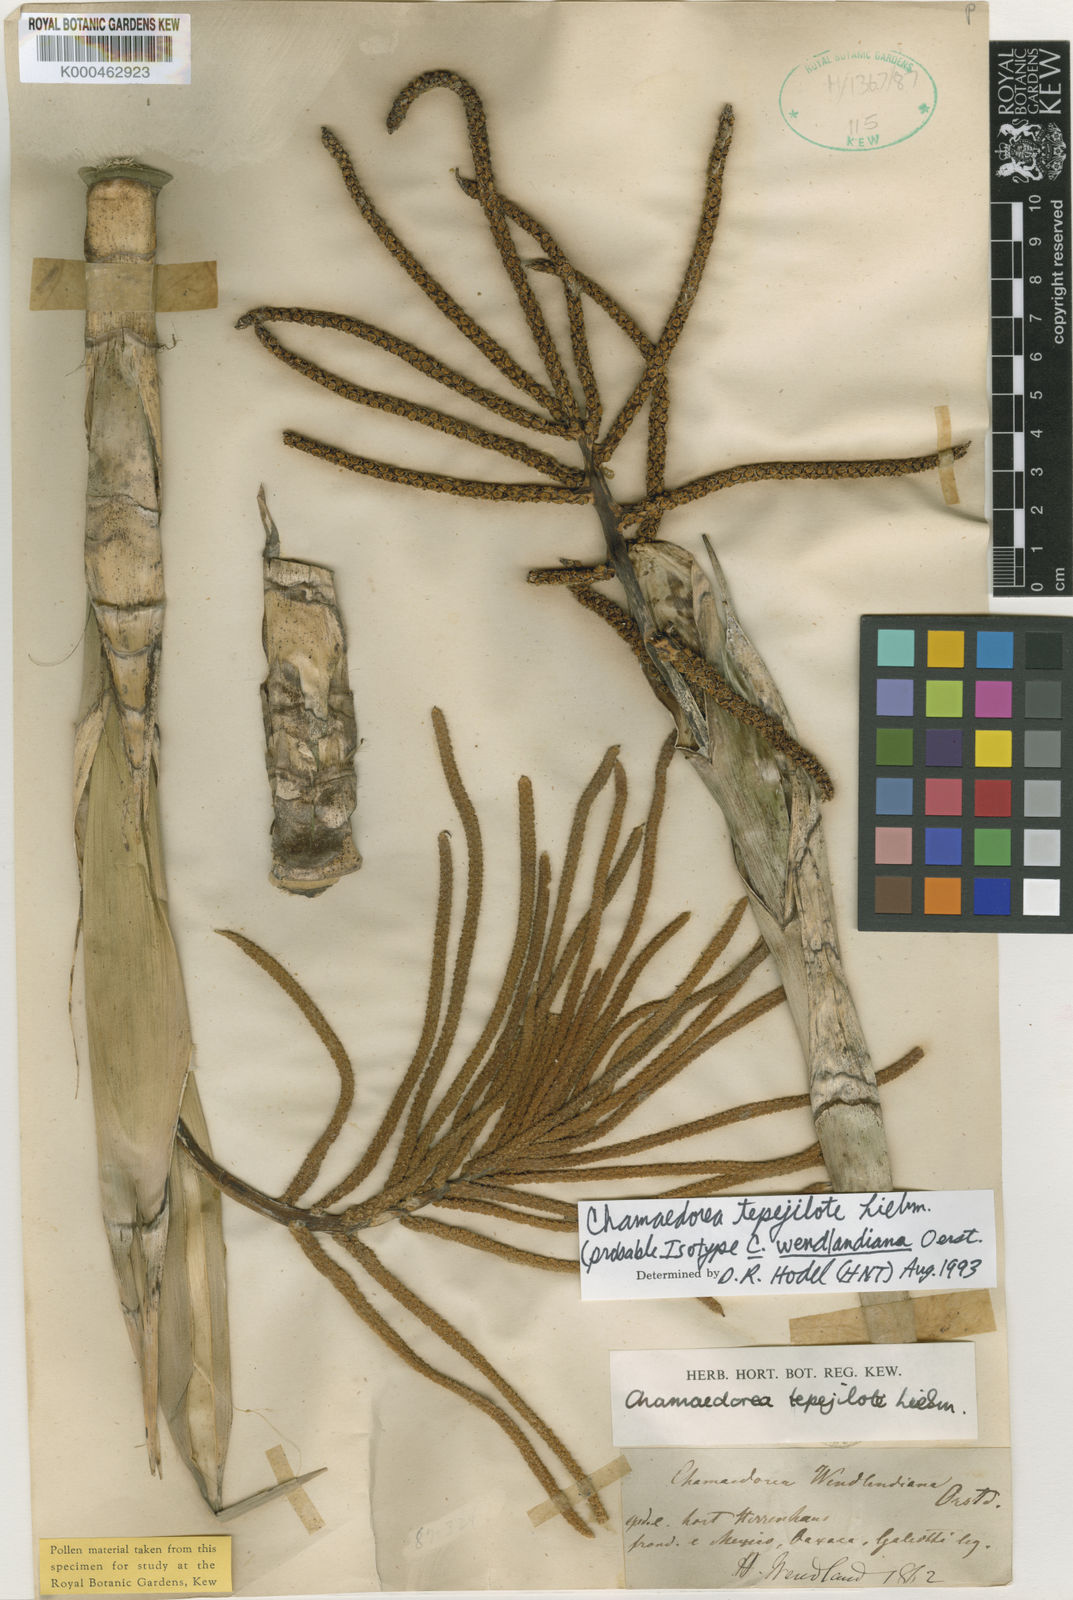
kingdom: Plantae
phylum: Tracheophyta
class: Liliopsida
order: Arecales
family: Arecaceae
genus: Chamaedorea
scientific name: Chamaedorea tepejilote
